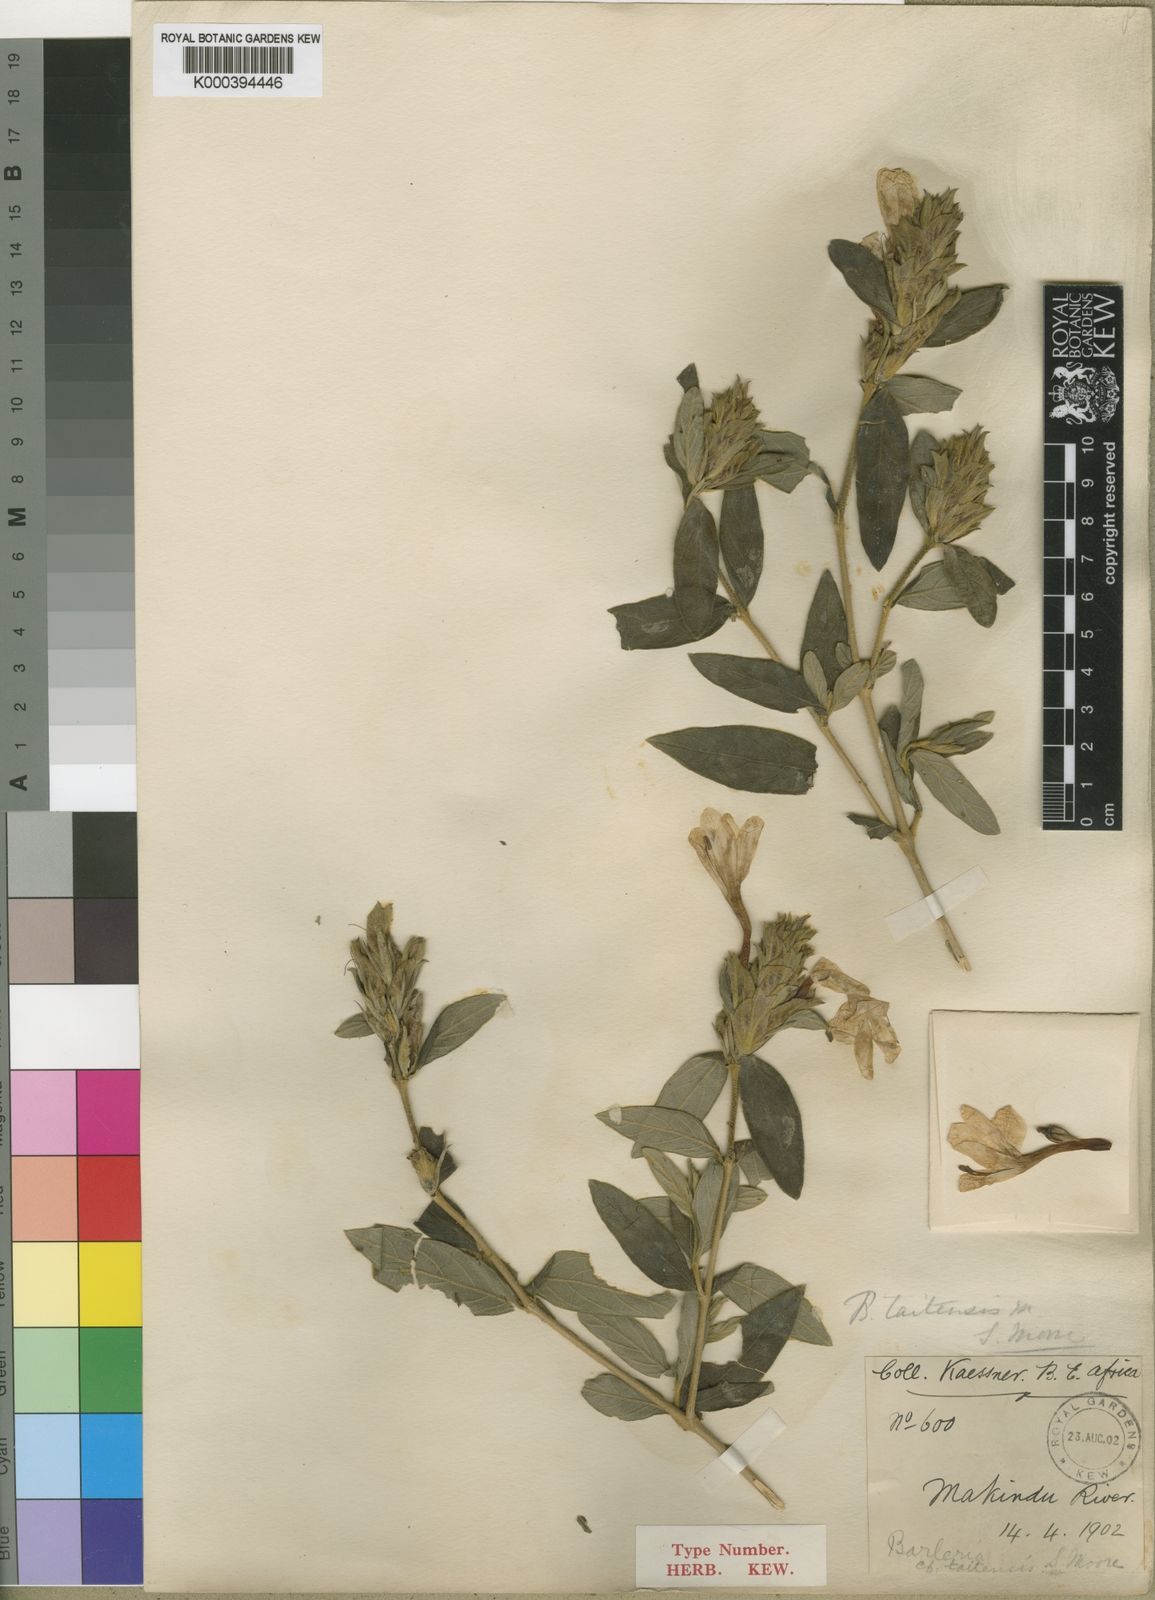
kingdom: Plantae
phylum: Tracheophyta
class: Magnoliopsida
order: Lamiales
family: Acanthaceae
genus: Barleria
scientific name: Barleria taitensis
